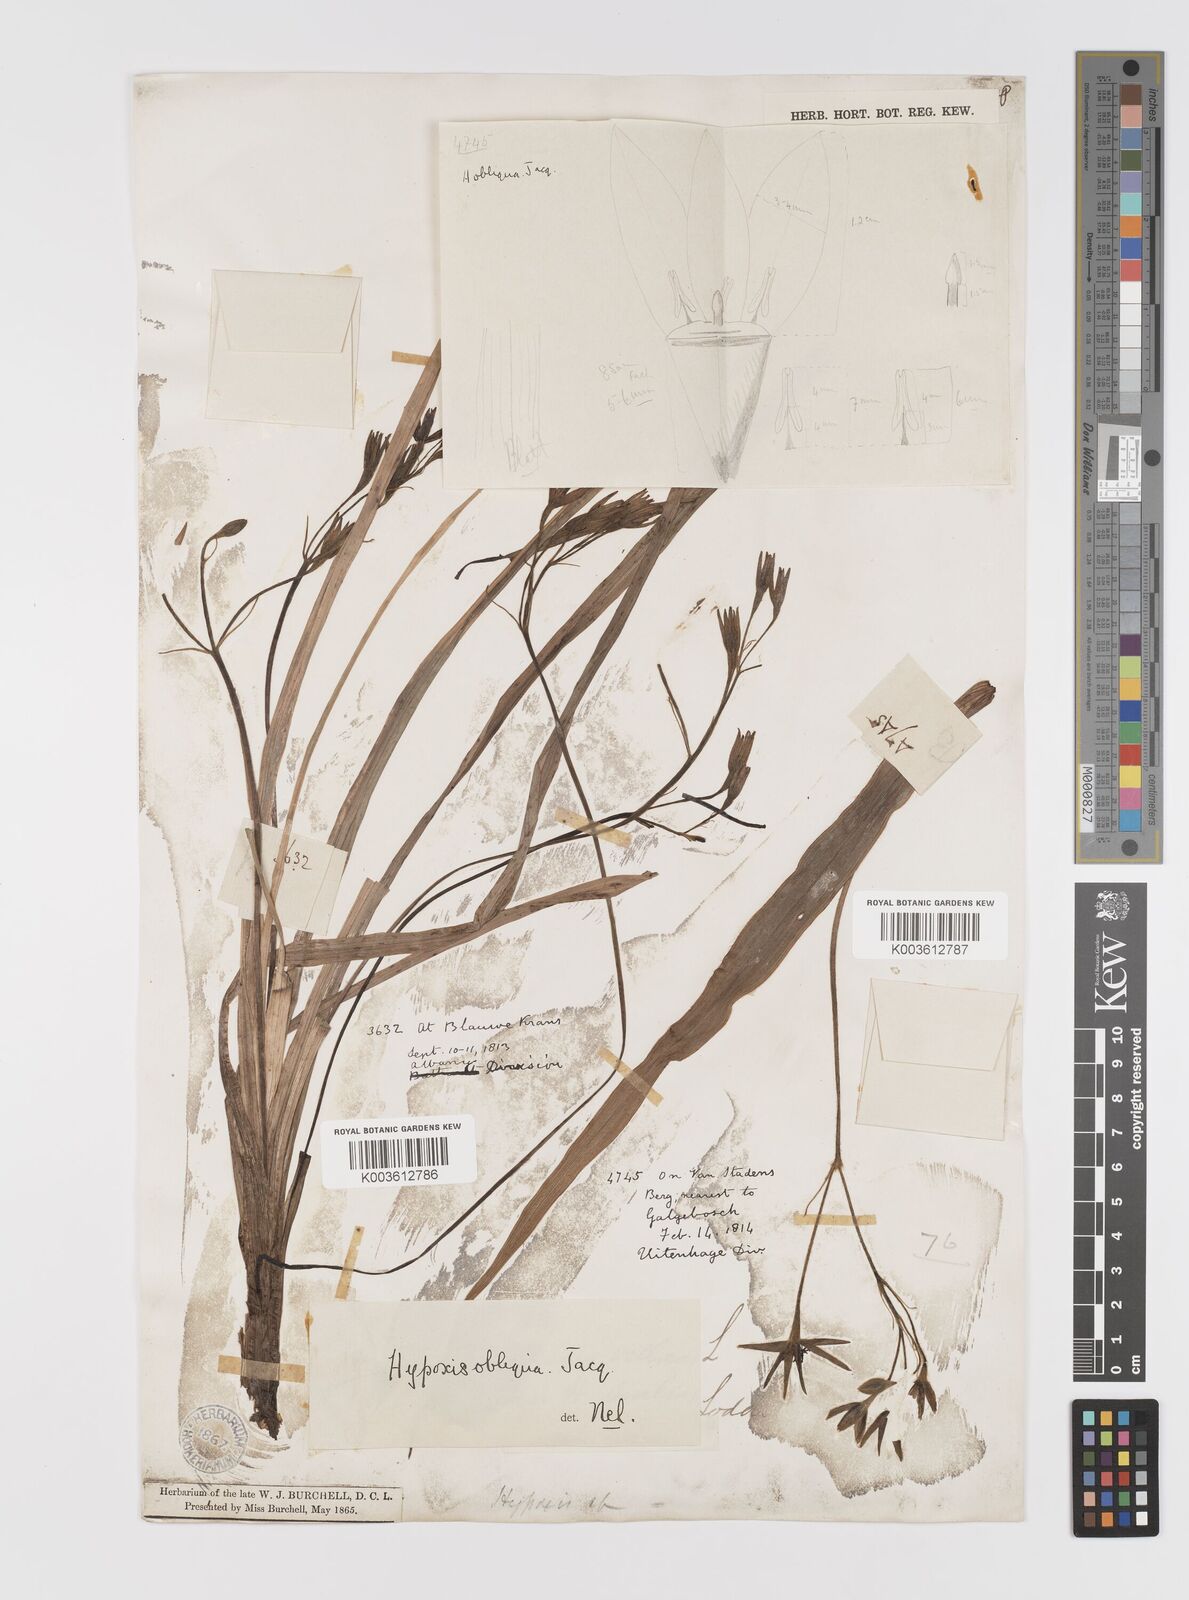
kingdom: Plantae
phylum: Tracheophyta
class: Liliopsida
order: Asparagales
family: Hypoxidaceae
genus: Hypoxis
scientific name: Hypoxis villosa
